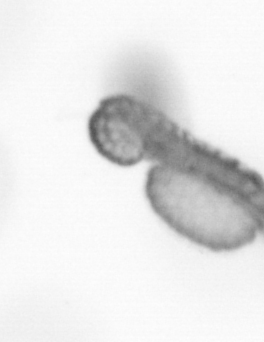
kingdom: Animalia
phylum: Annelida
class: Polychaeta
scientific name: Polychaeta
